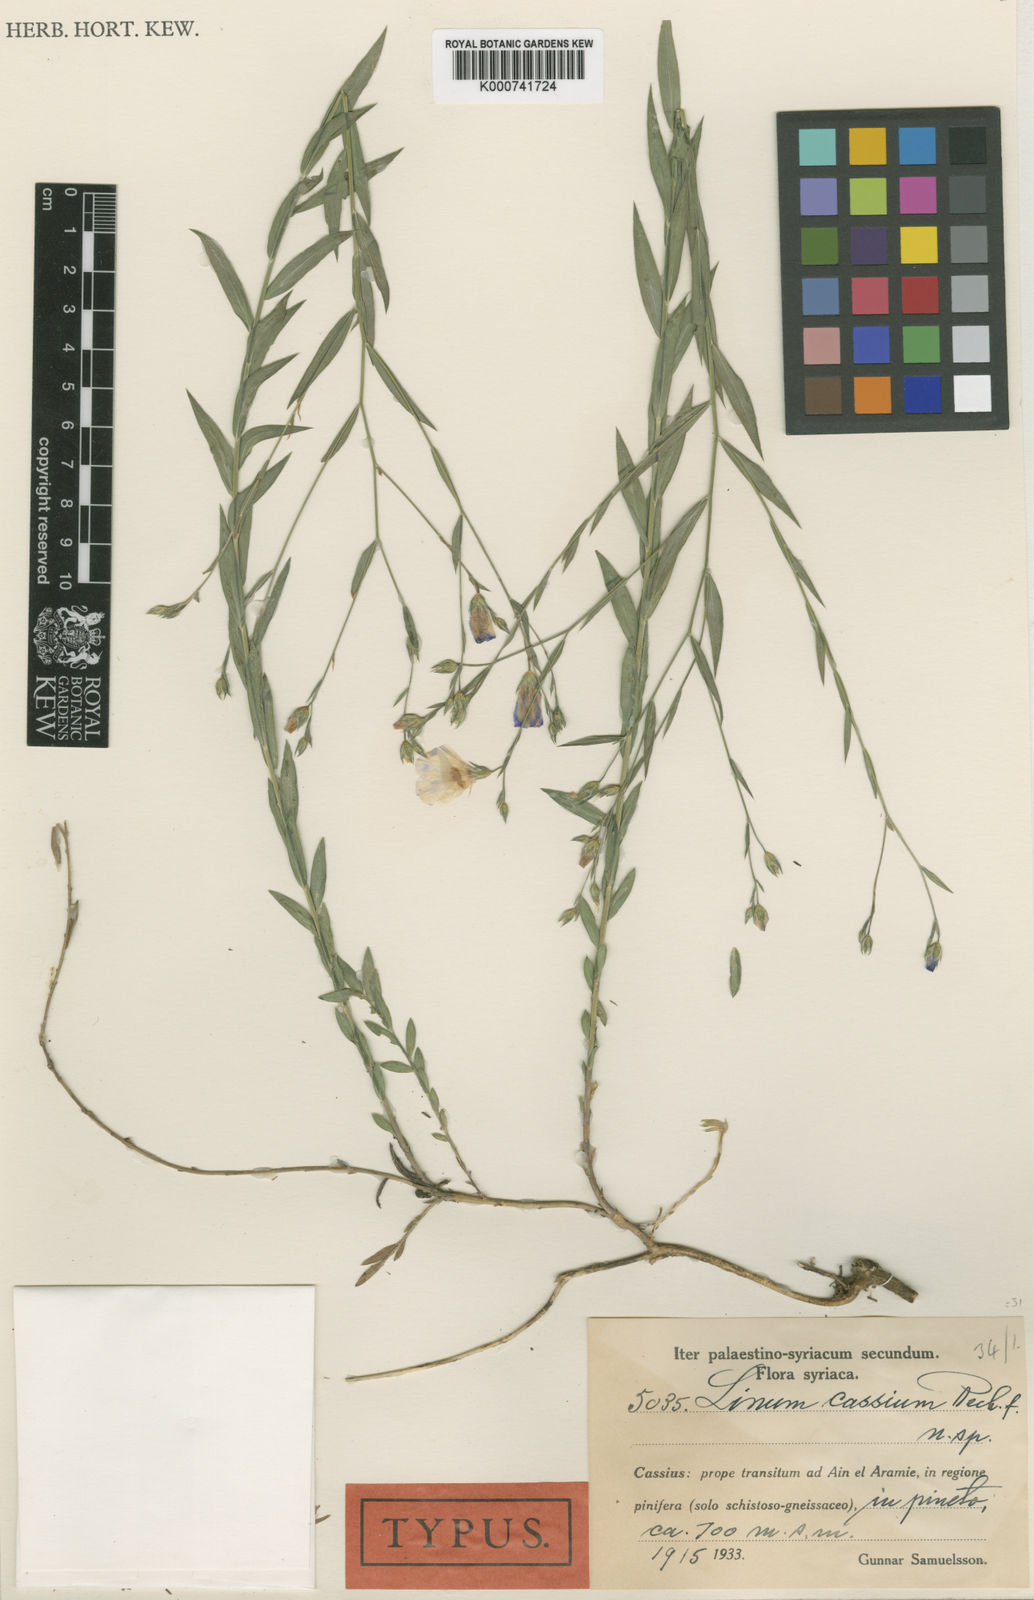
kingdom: Plantae
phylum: Tracheophyta
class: Magnoliopsida
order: Malpighiales
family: Linaceae
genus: Linum
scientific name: Linum aroanium
